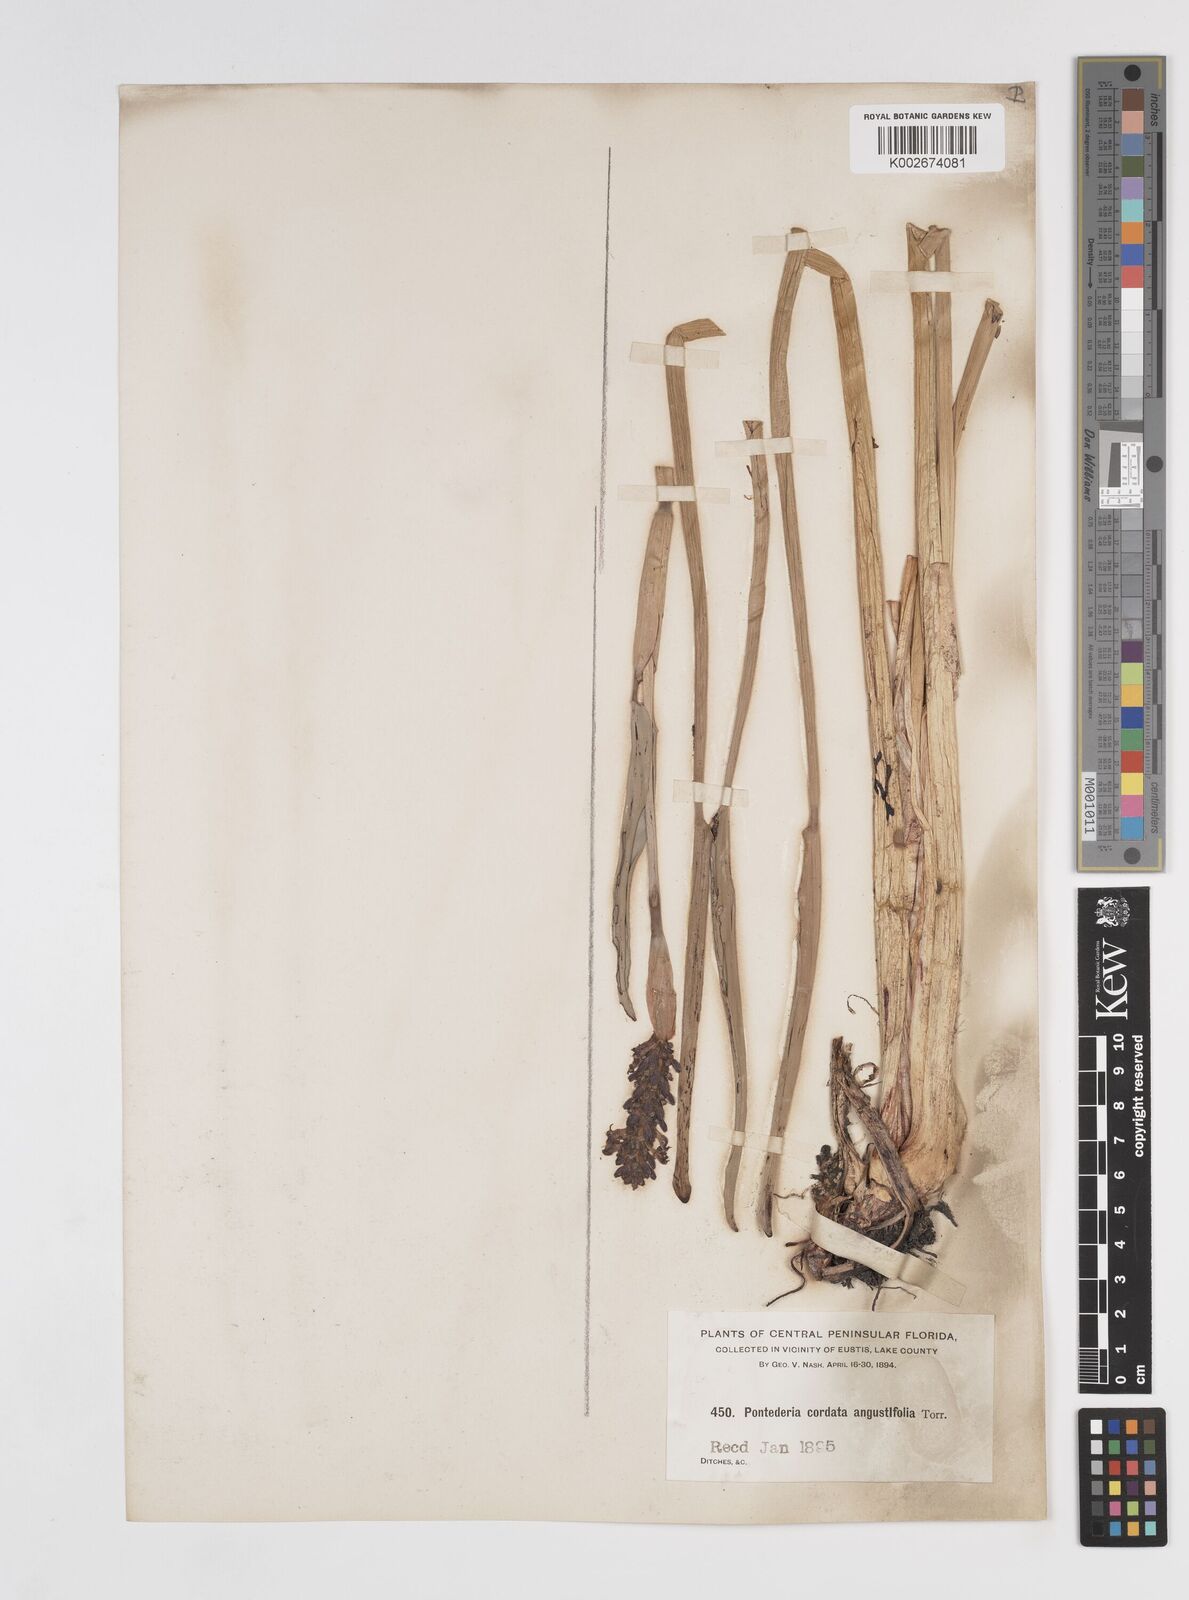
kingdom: Plantae
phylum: Tracheophyta
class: Liliopsida
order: Commelinales
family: Pontederiaceae
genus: Pontederia
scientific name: Pontederia cordata
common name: Pickerelweed
